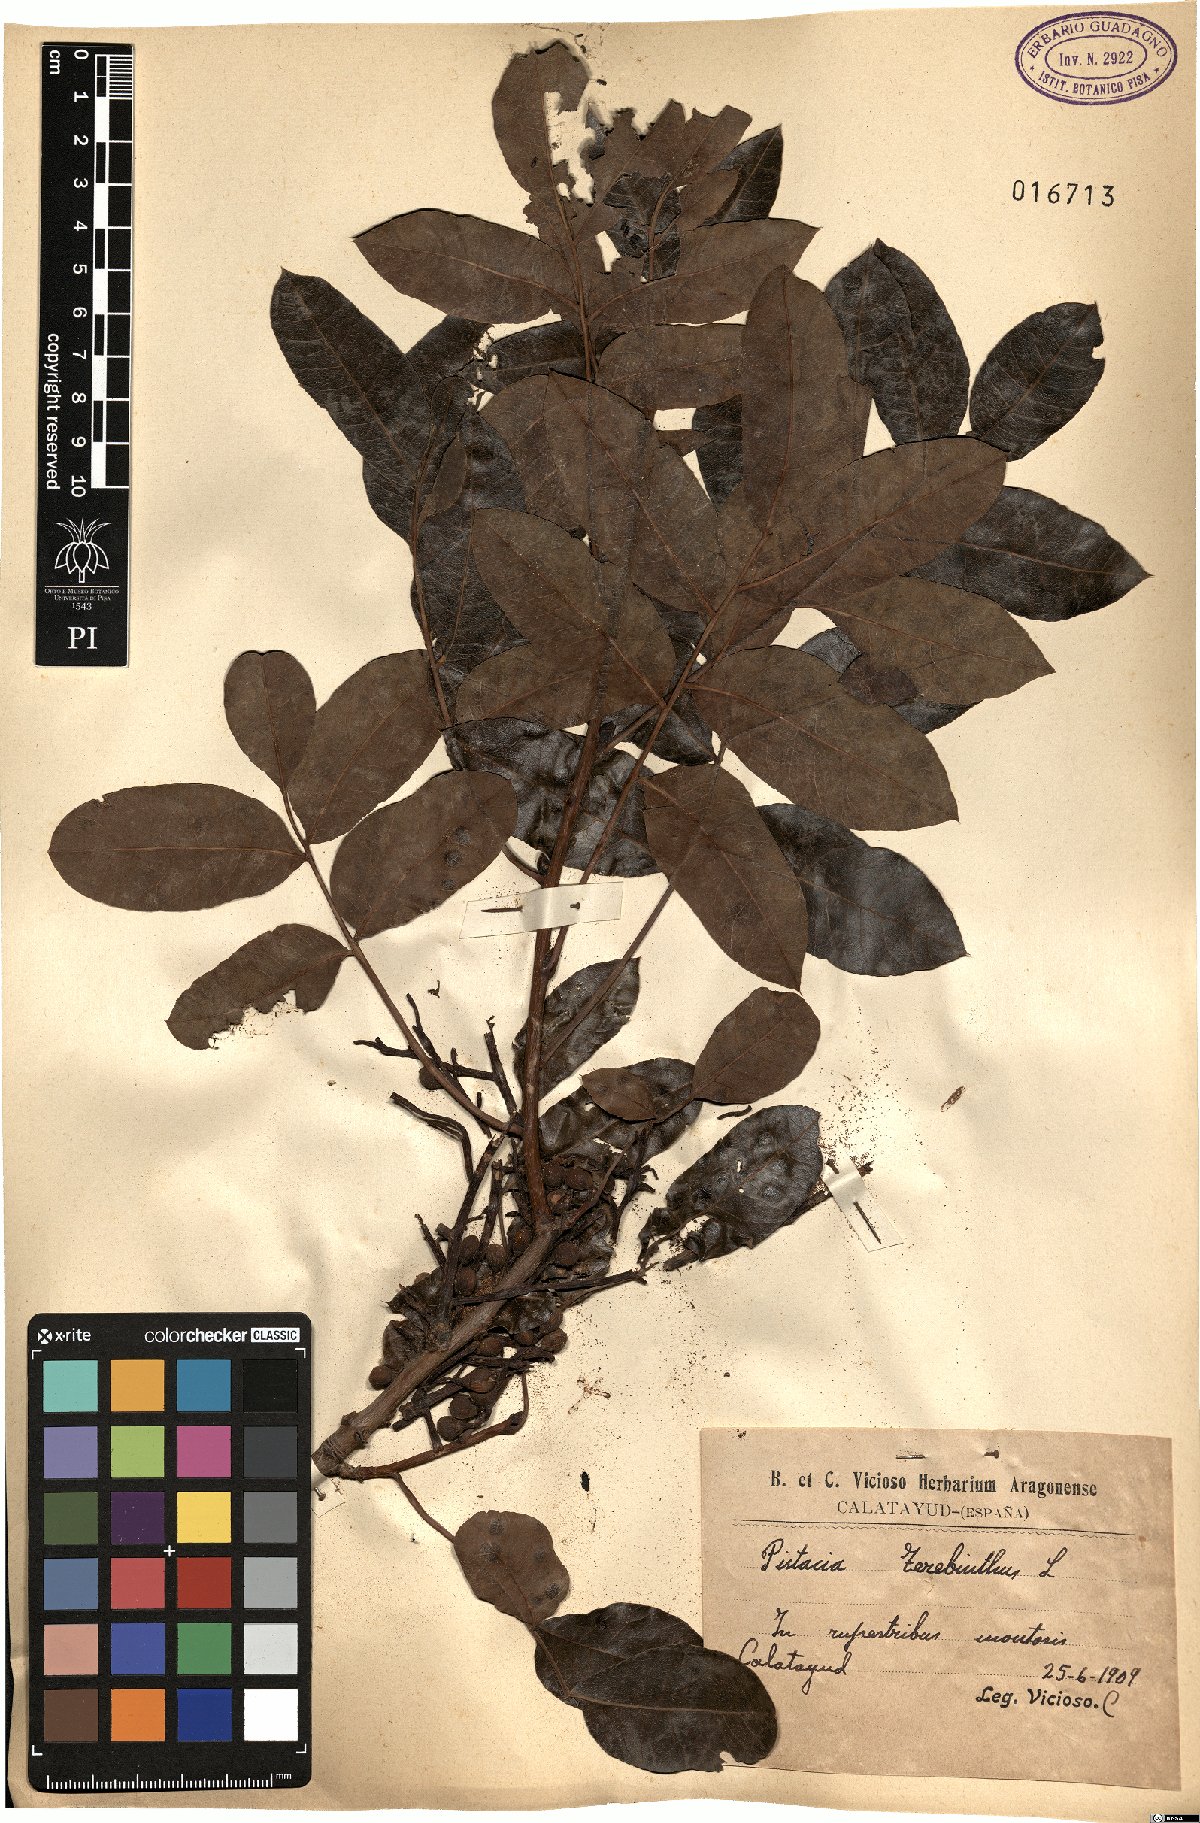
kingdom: Plantae
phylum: Tracheophyta
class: Magnoliopsida
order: Sapindales
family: Anacardiaceae
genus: Pistacia
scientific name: Pistacia terebinthus
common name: Terebinth
